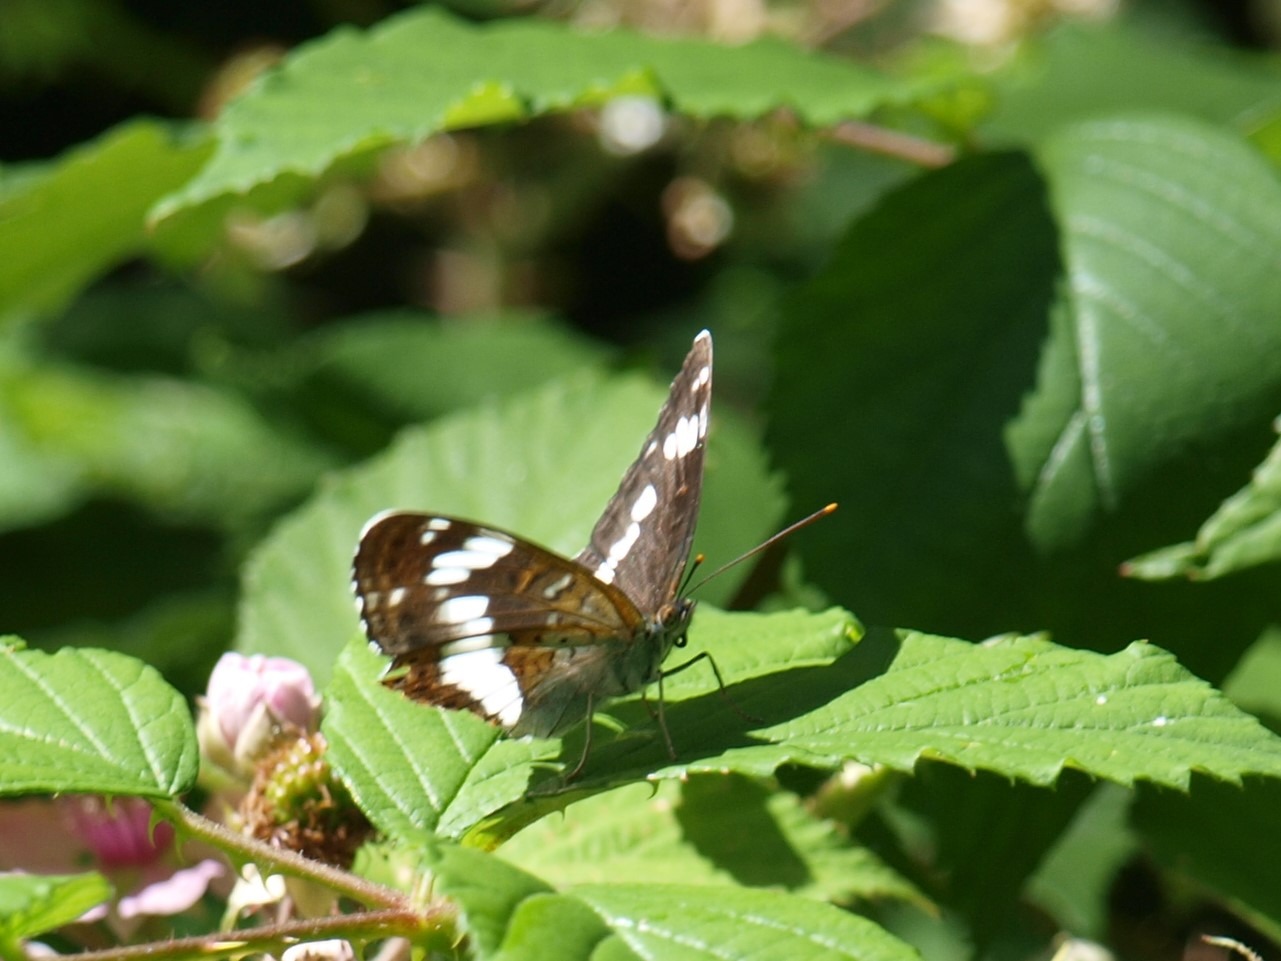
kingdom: Animalia
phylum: Arthropoda
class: Insecta
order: Lepidoptera
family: Nymphalidae
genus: Ladoga
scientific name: Ladoga camilla
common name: Hvid admiral
